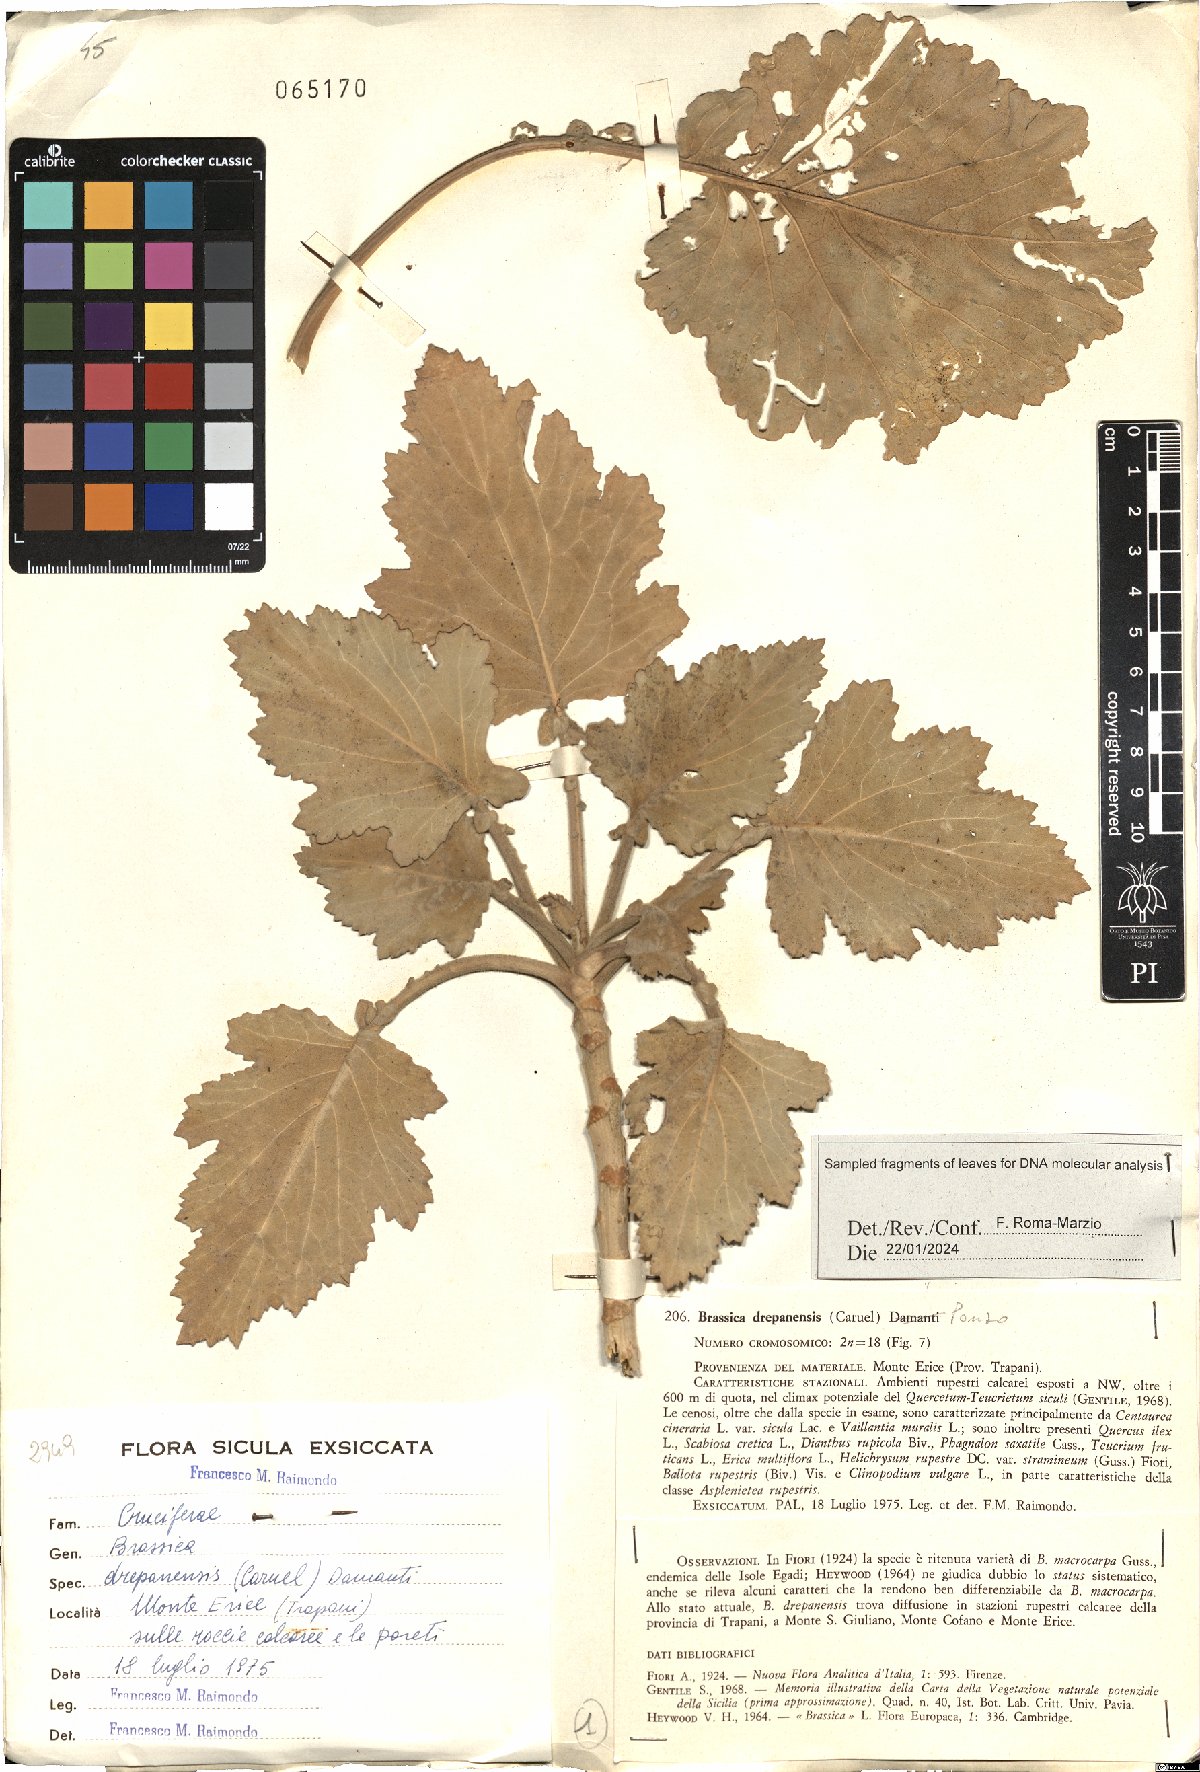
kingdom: Plantae
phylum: Tracheophyta
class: Magnoliopsida
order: Brassicales
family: Brassicaceae
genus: Brassica
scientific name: Brassica drepanensis
